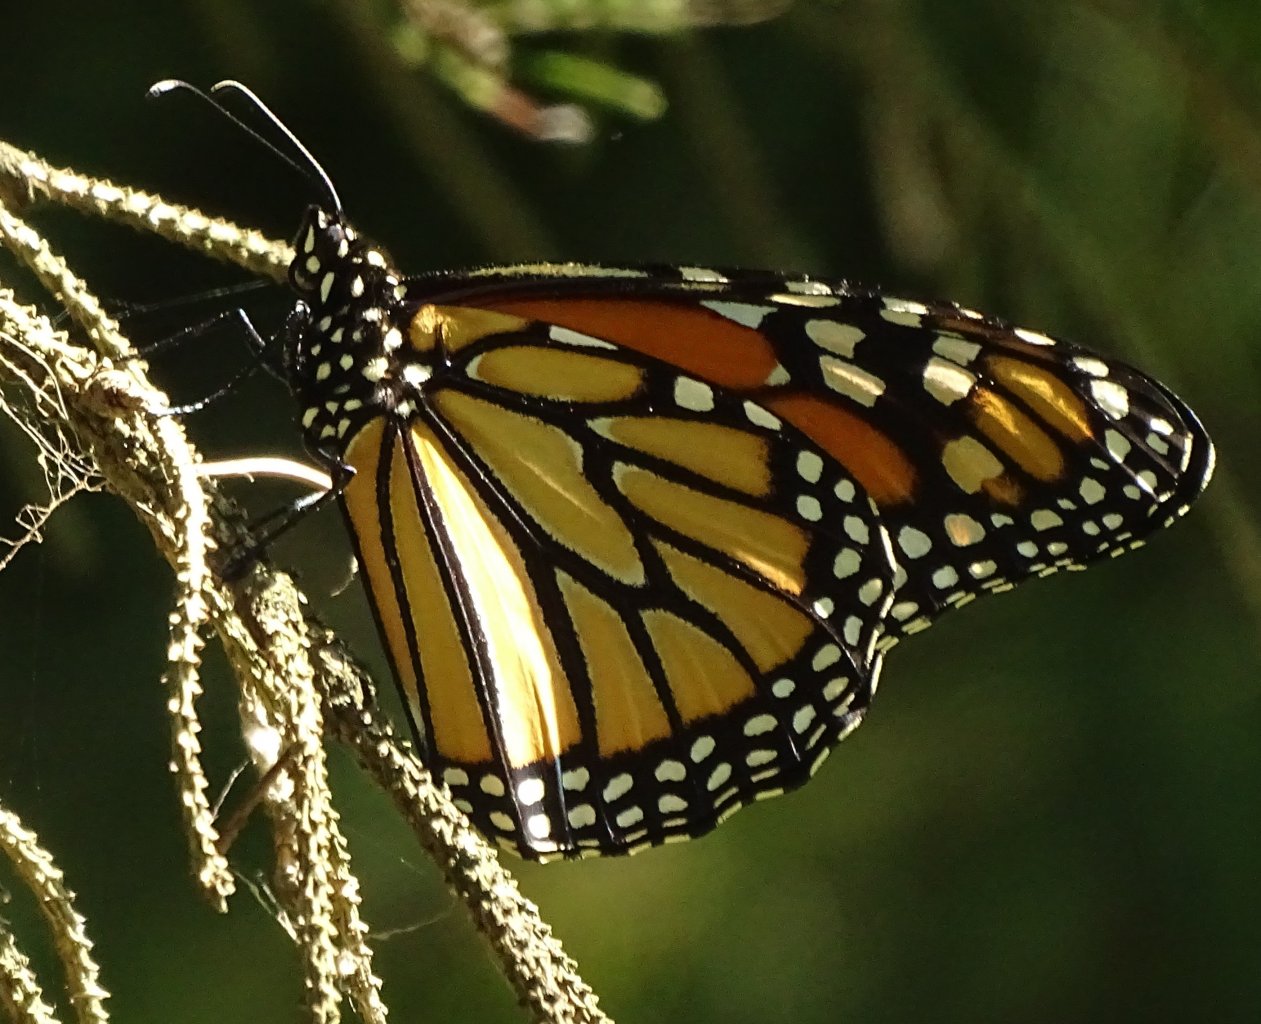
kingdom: Animalia
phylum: Arthropoda
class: Insecta
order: Lepidoptera
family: Nymphalidae
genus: Danaus
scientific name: Danaus plexippus
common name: Monarch
